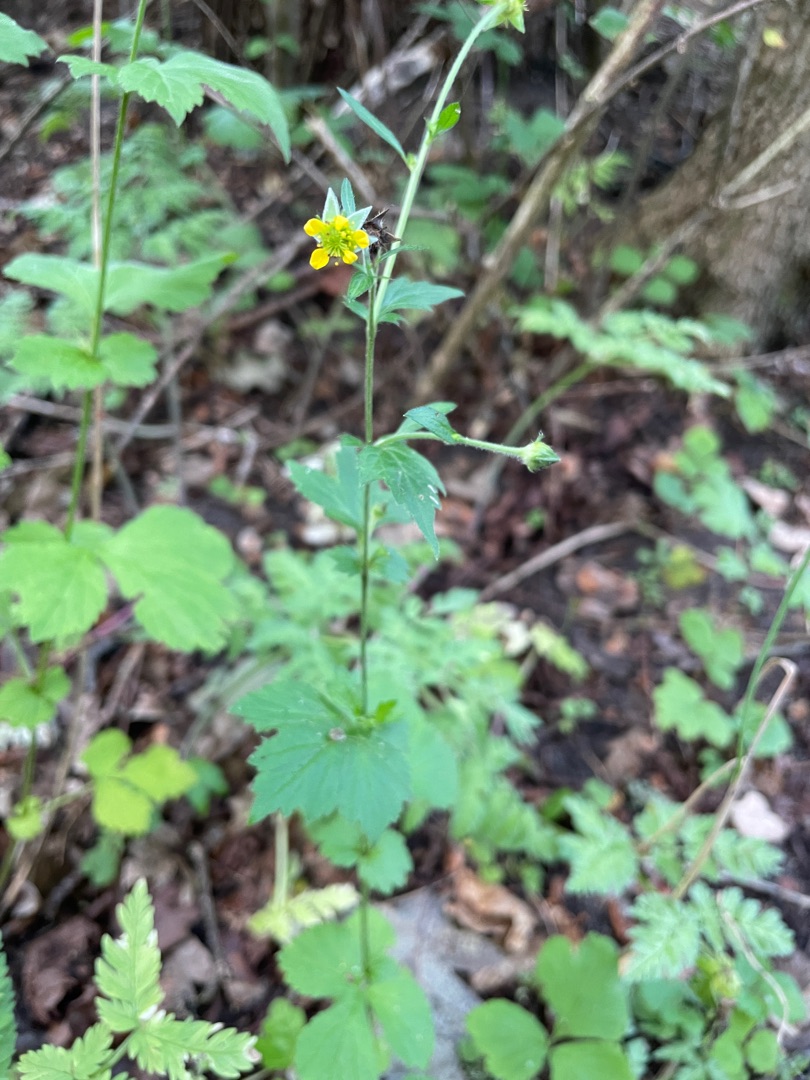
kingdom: Plantae
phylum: Tracheophyta
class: Magnoliopsida
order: Rosales
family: Rosaceae
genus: Geum
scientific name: Geum urbanum
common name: Feber-nellikerod
